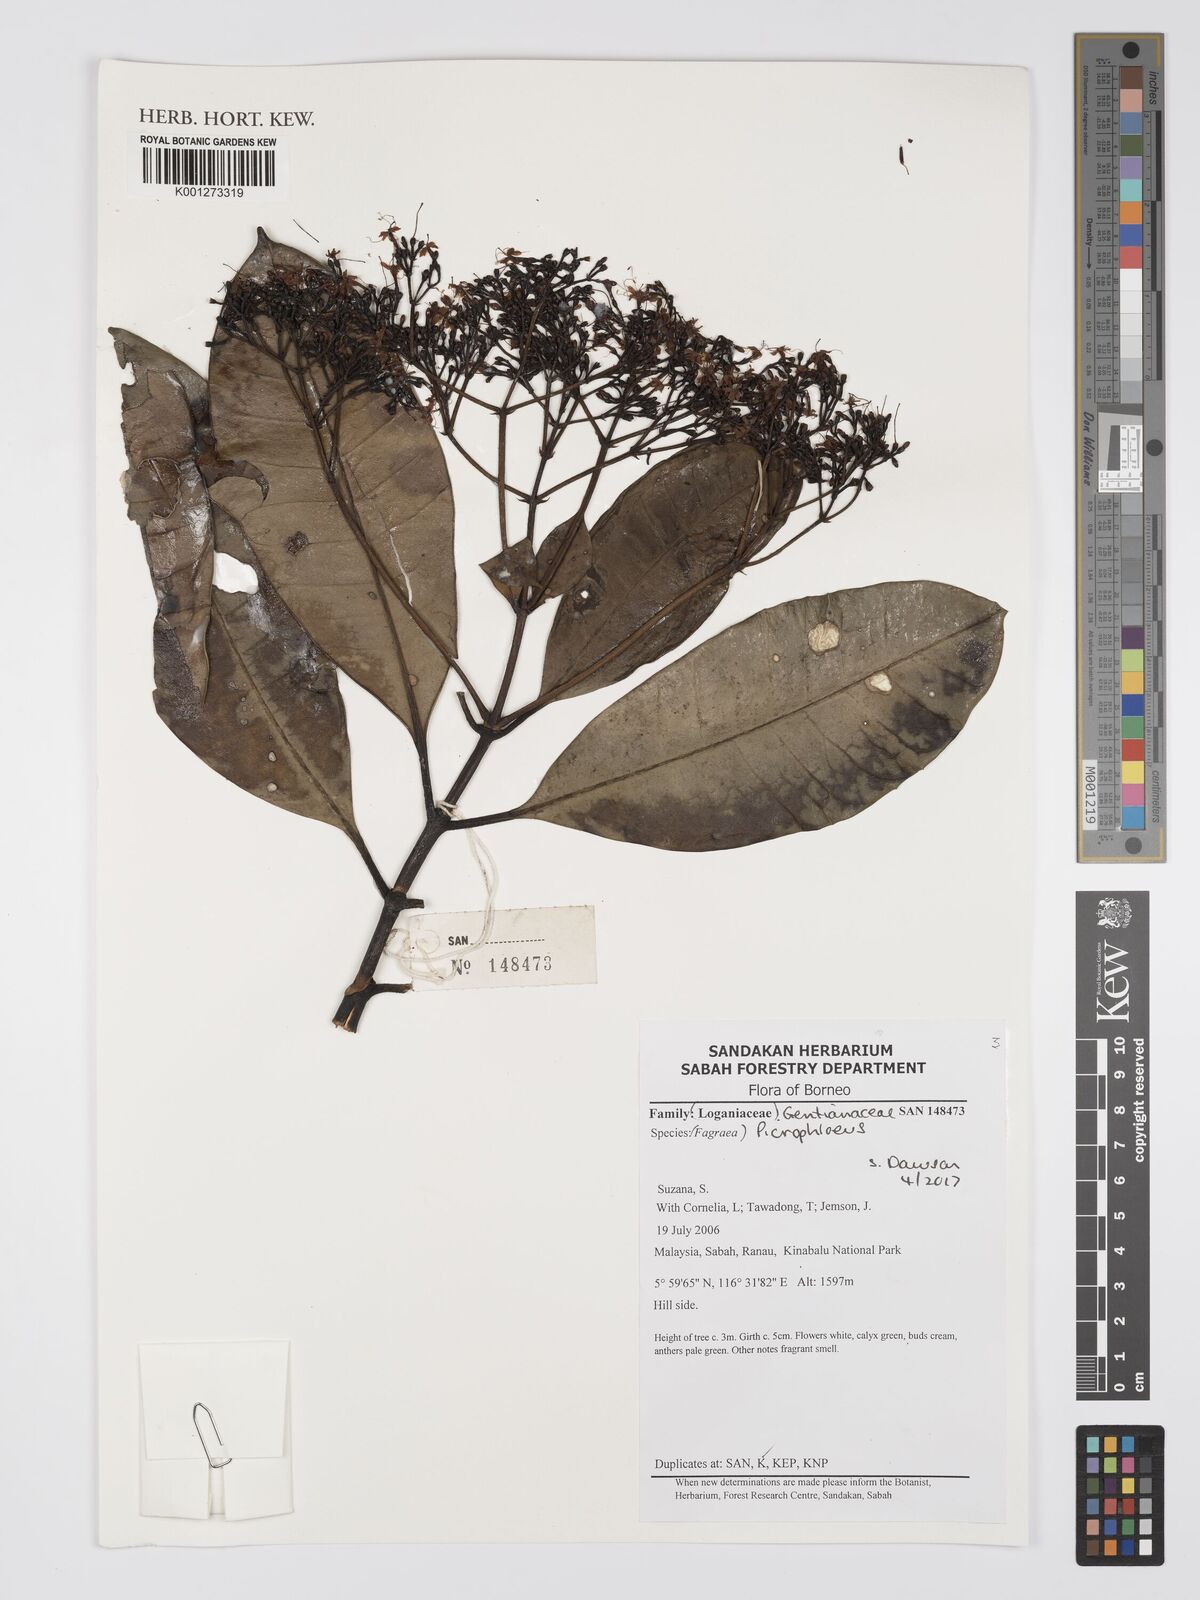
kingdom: Plantae
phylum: Tracheophyta
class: Magnoliopsida
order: Gentianales
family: Gentianaceae
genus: Picrophloeus
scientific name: Picrophloeus
